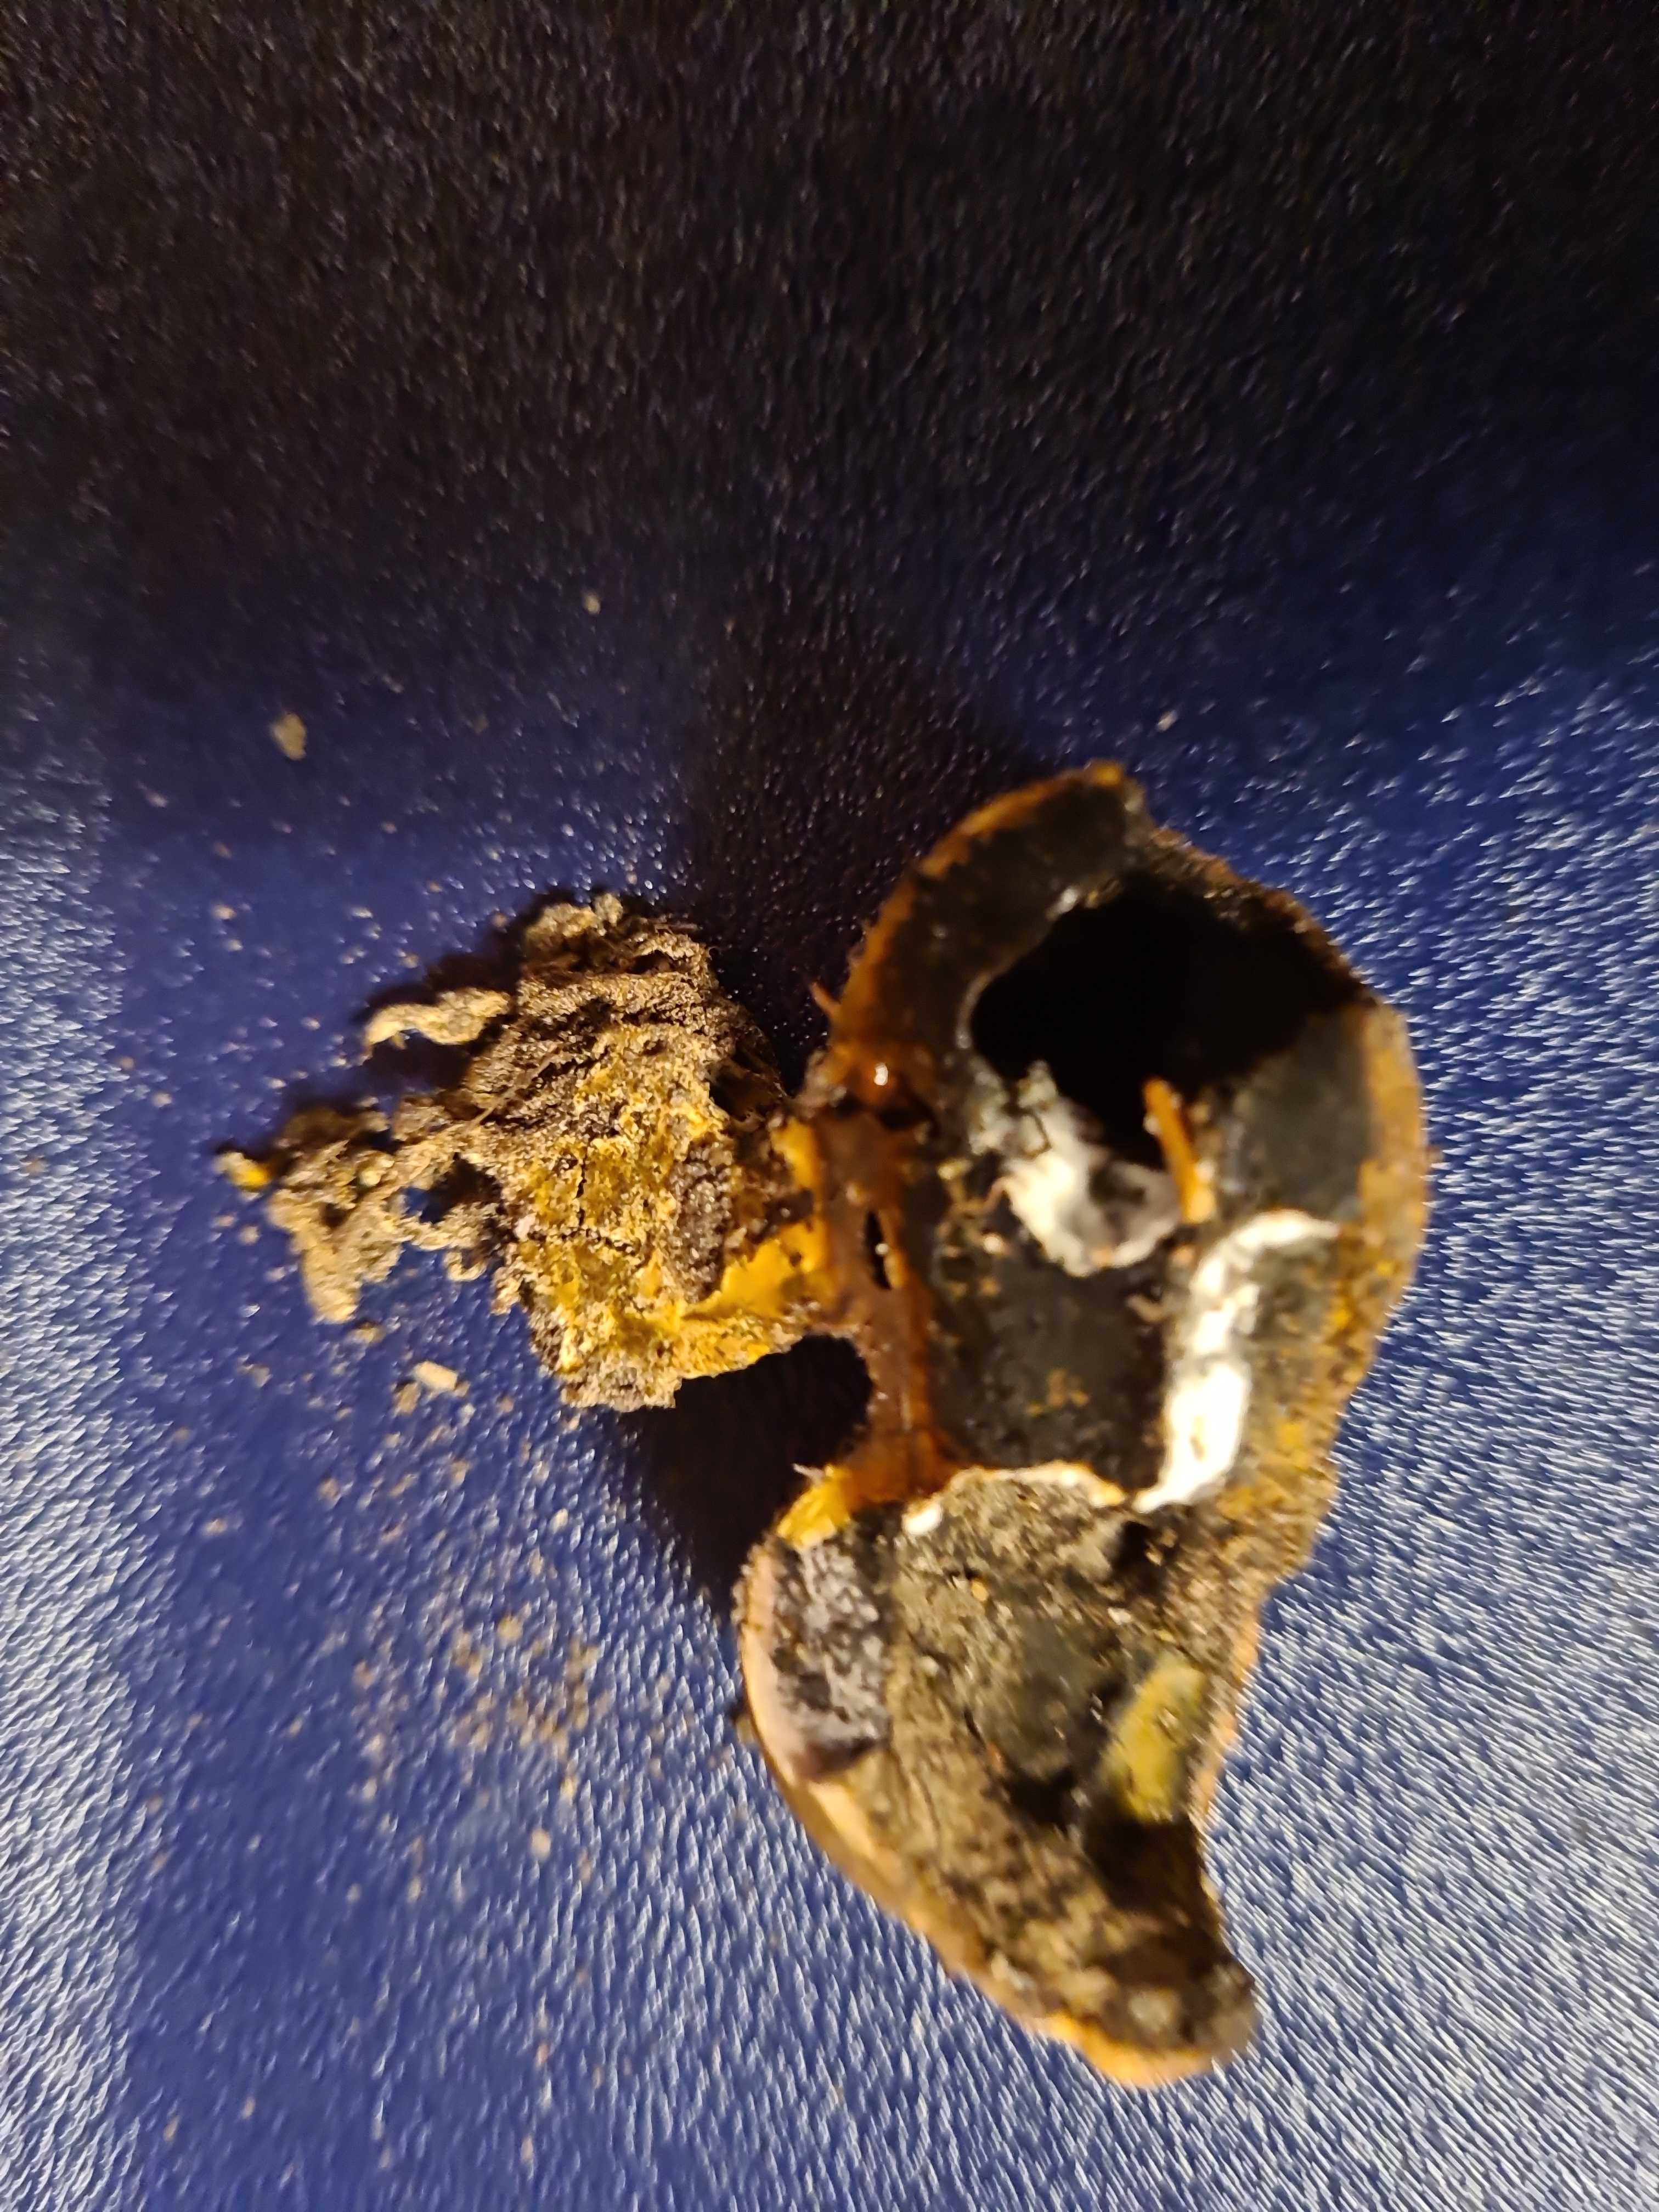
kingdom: Fungi
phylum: Basidiomycota
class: Agaricomycetes
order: Boletales
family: Sclerodermataceae
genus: Scleroderma
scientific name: Scleroderma
